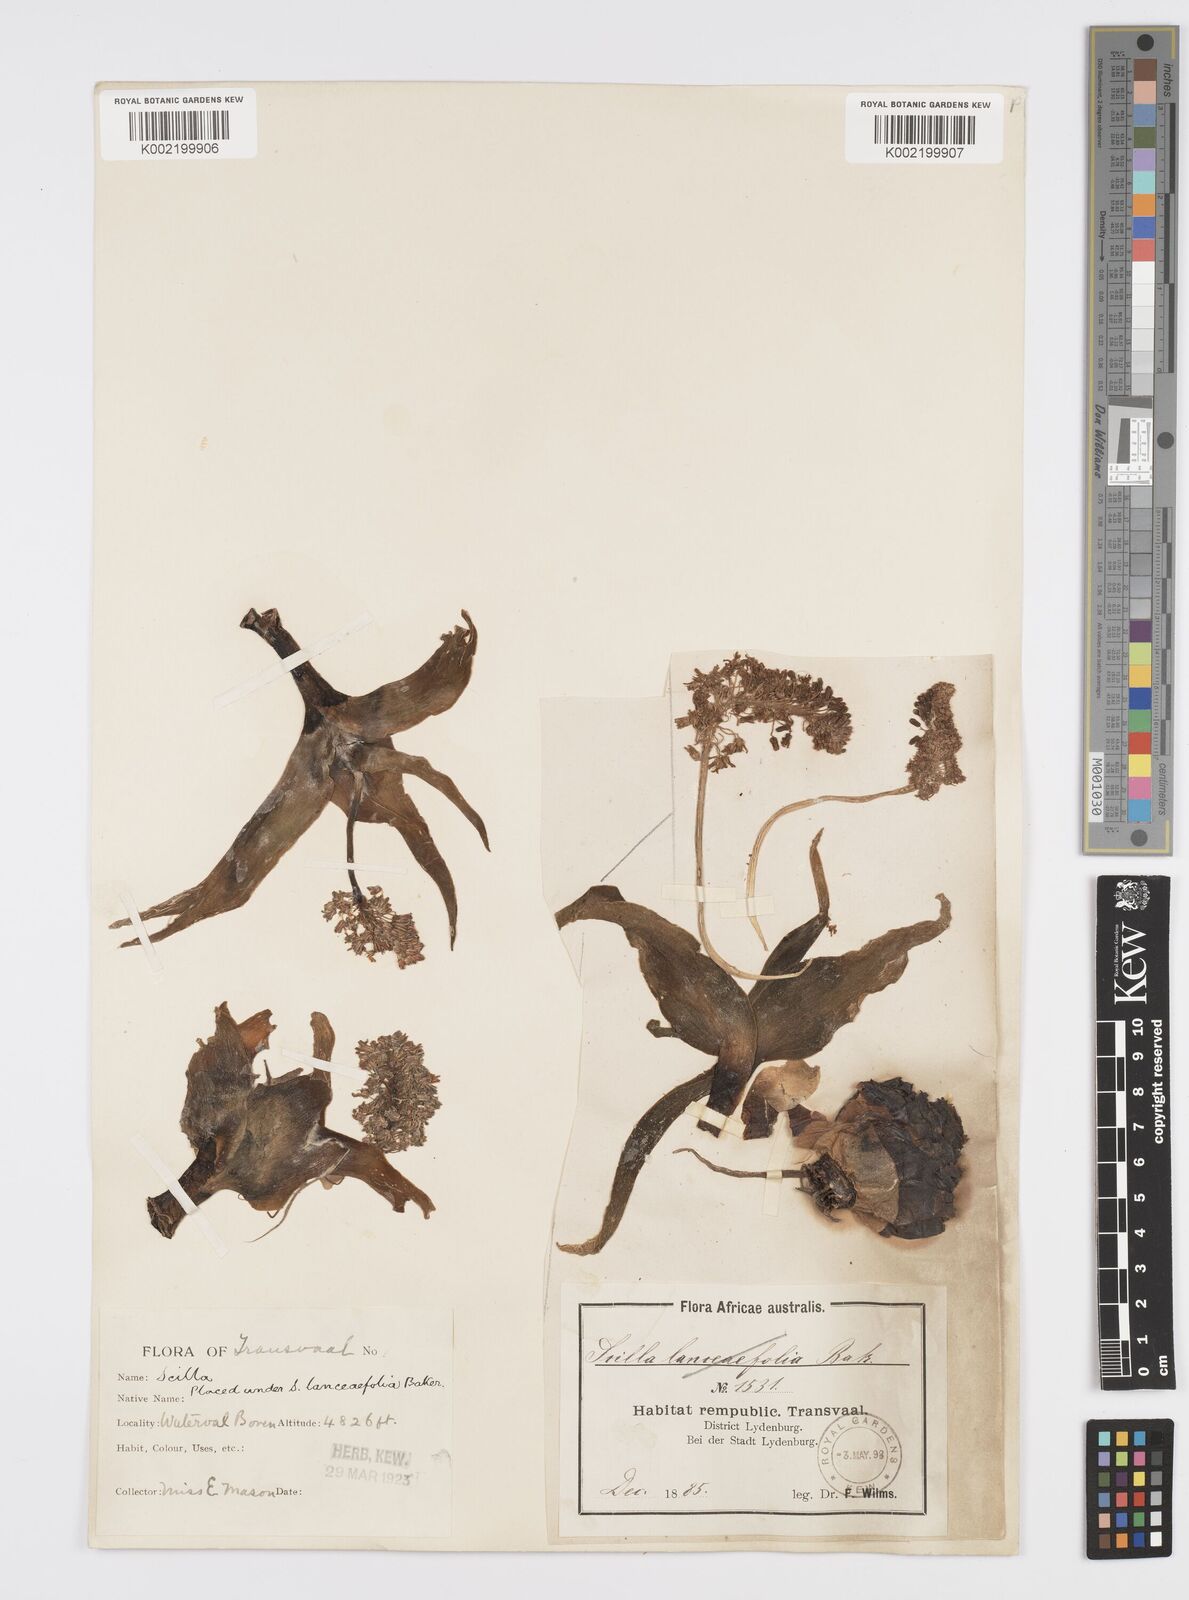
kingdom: Plantae
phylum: Tracheophyta
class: Liliopsida
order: Asparagales
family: Asparagaceae
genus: Ledebouria
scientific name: Ledebouria revoluta
